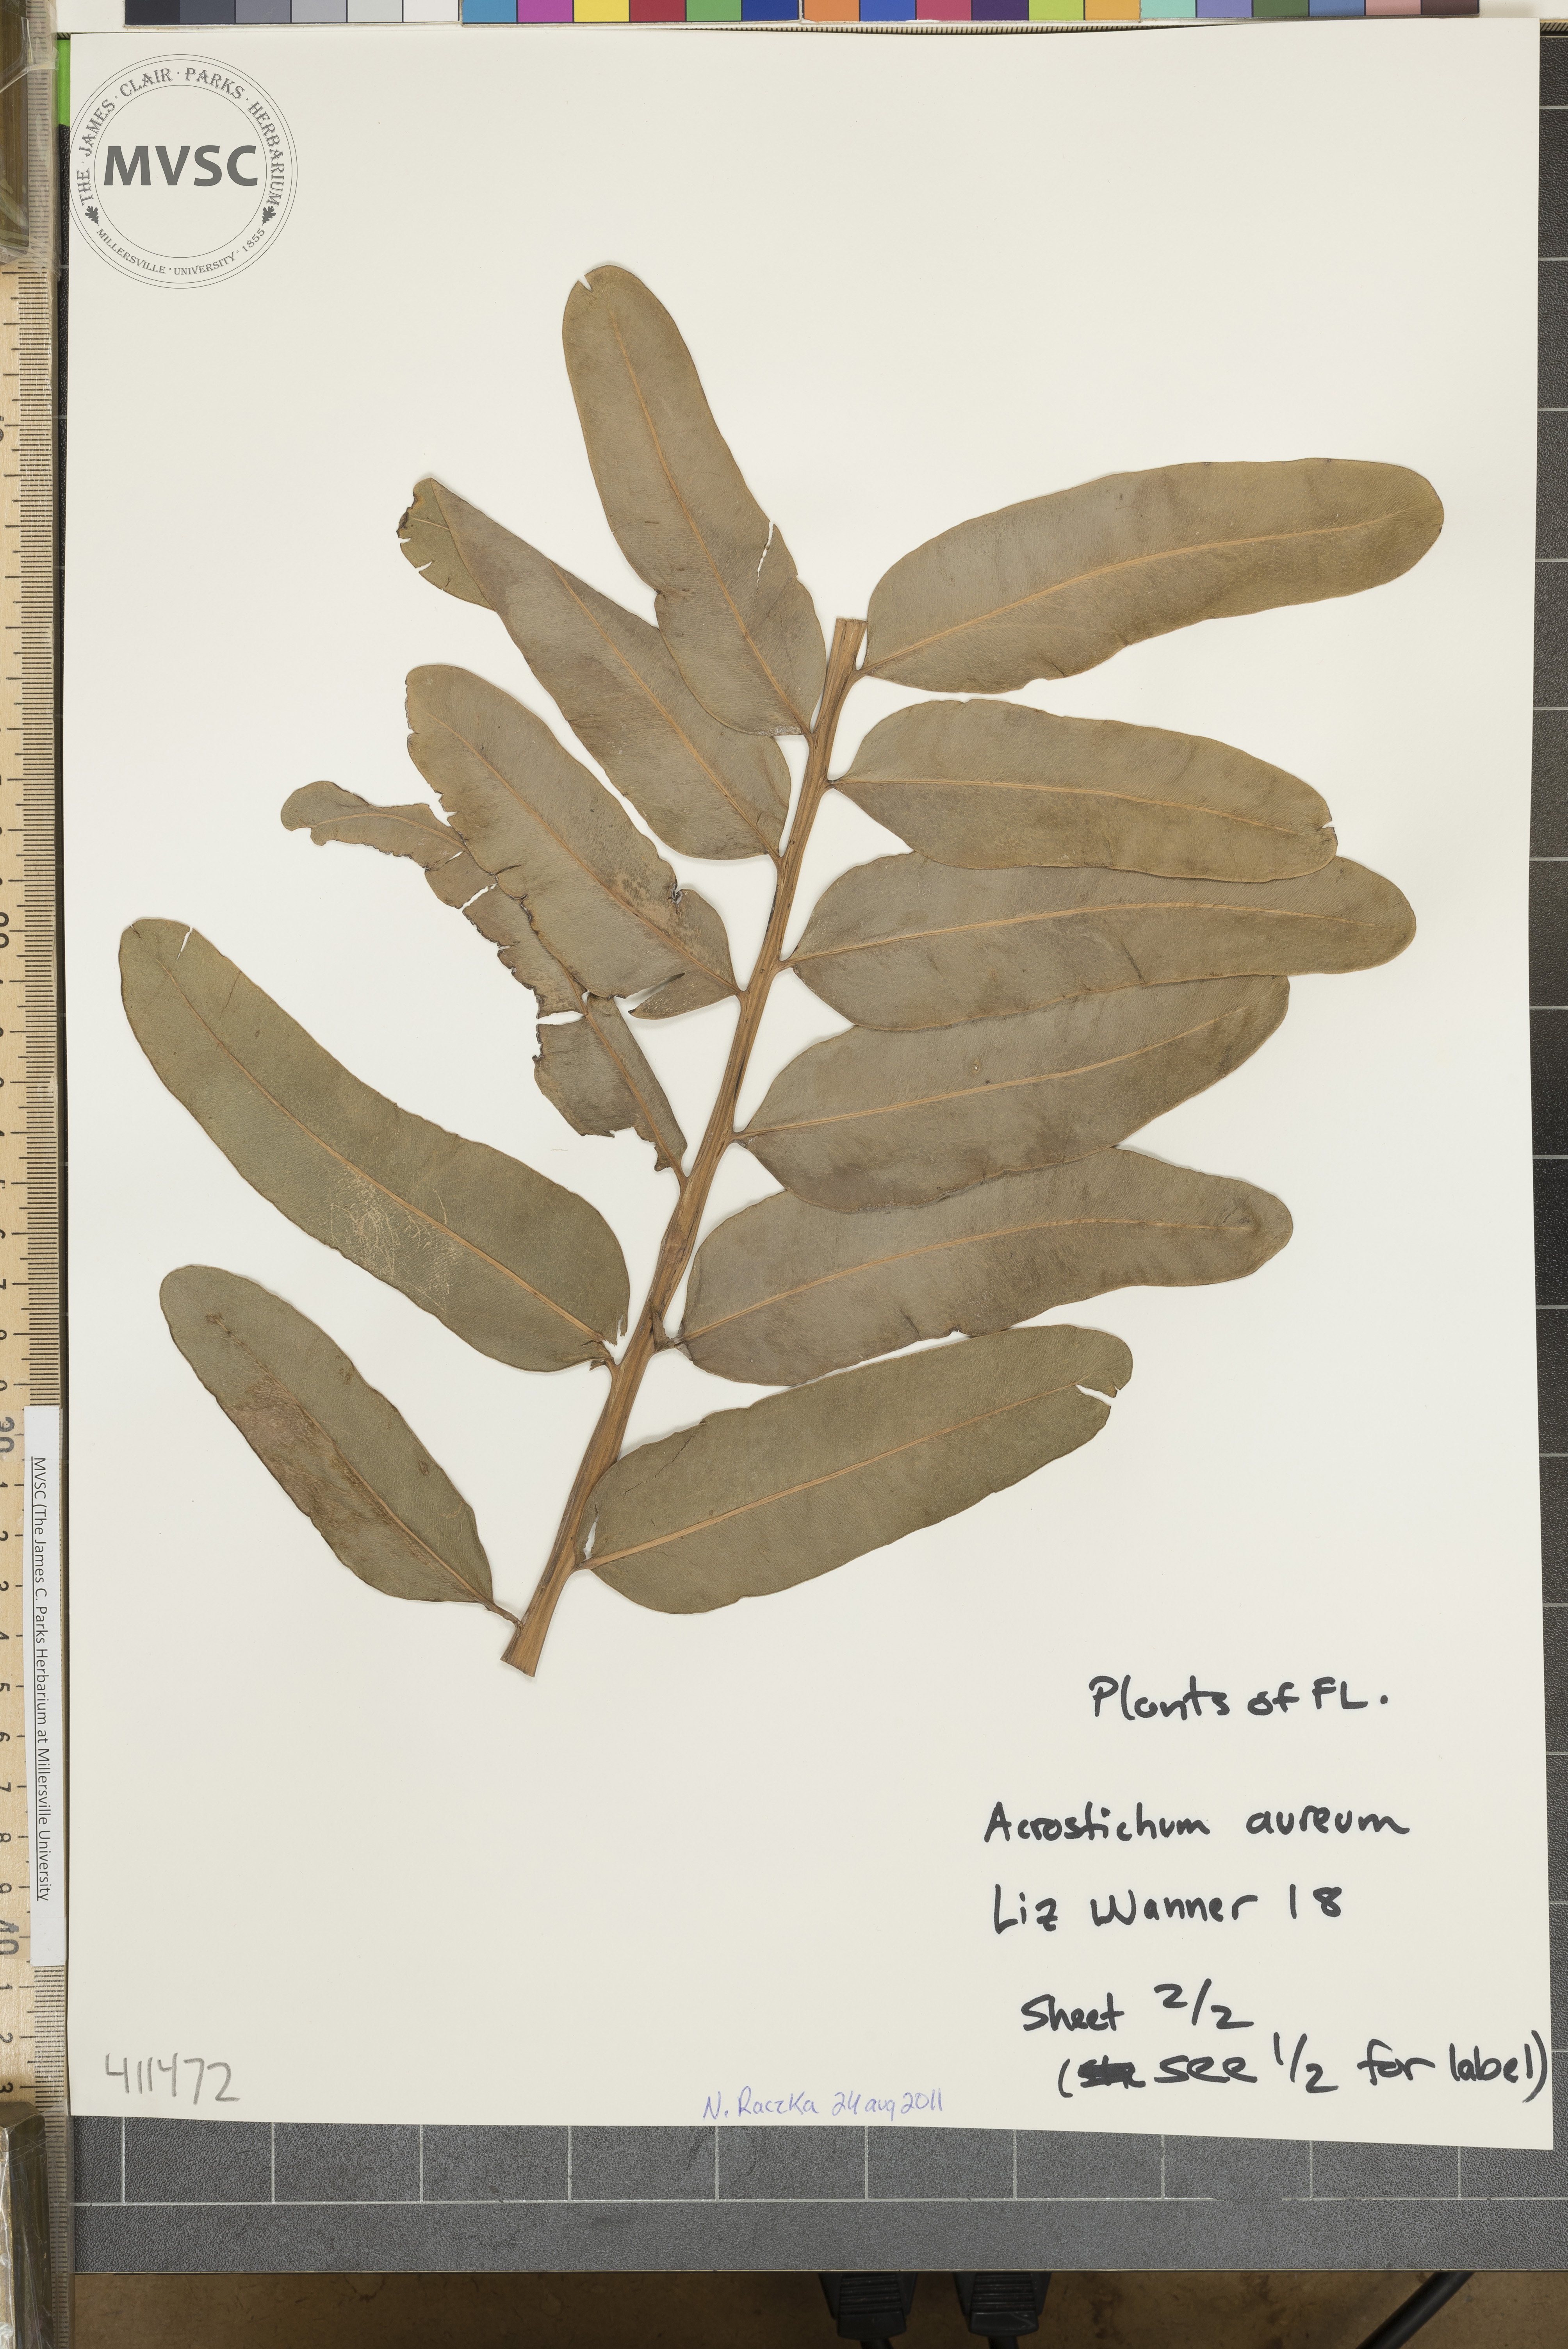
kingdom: Plantae
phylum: Tracheophyta
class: Polypodiopsida
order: Polypodiales
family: Pteridaceae
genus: Acrostichum
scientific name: Acrostichum aureum
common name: Leather fern
